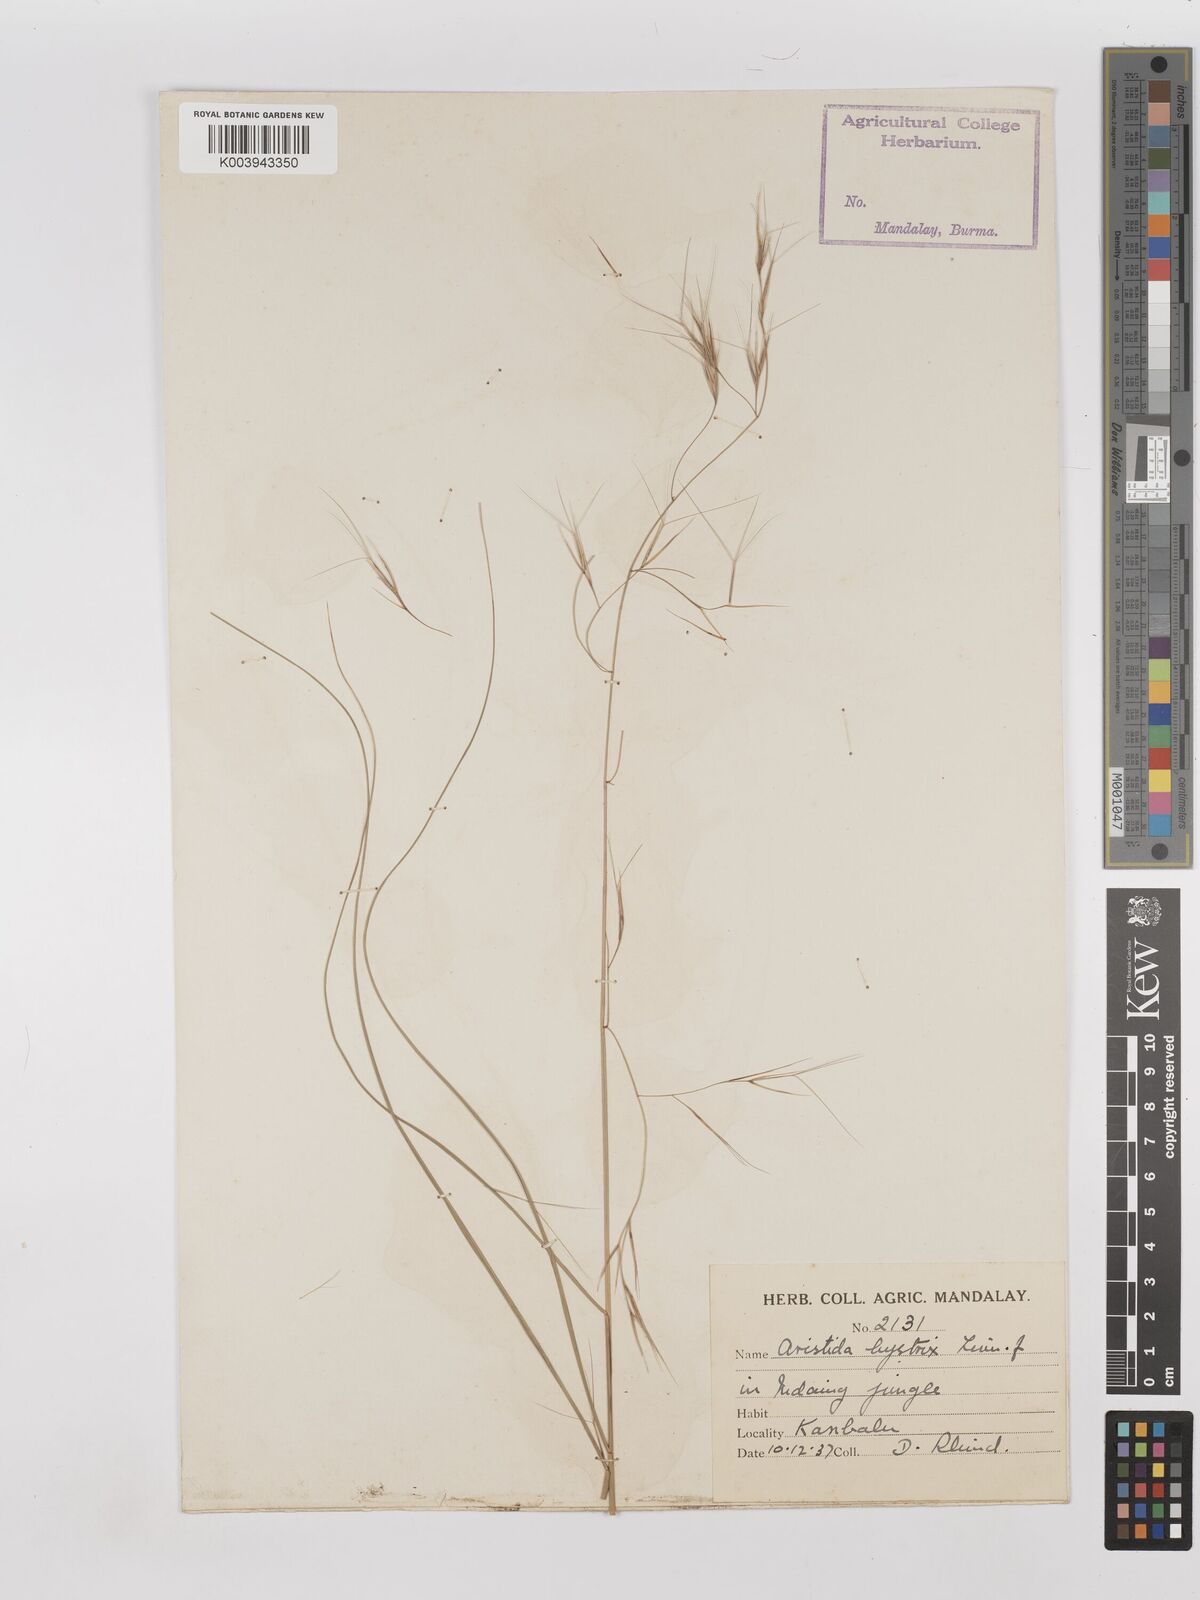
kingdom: Plantae
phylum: Tracheophyta
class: Liliopsida
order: Poales
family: Poaceae
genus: Aristida
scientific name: Aristida hystrix
